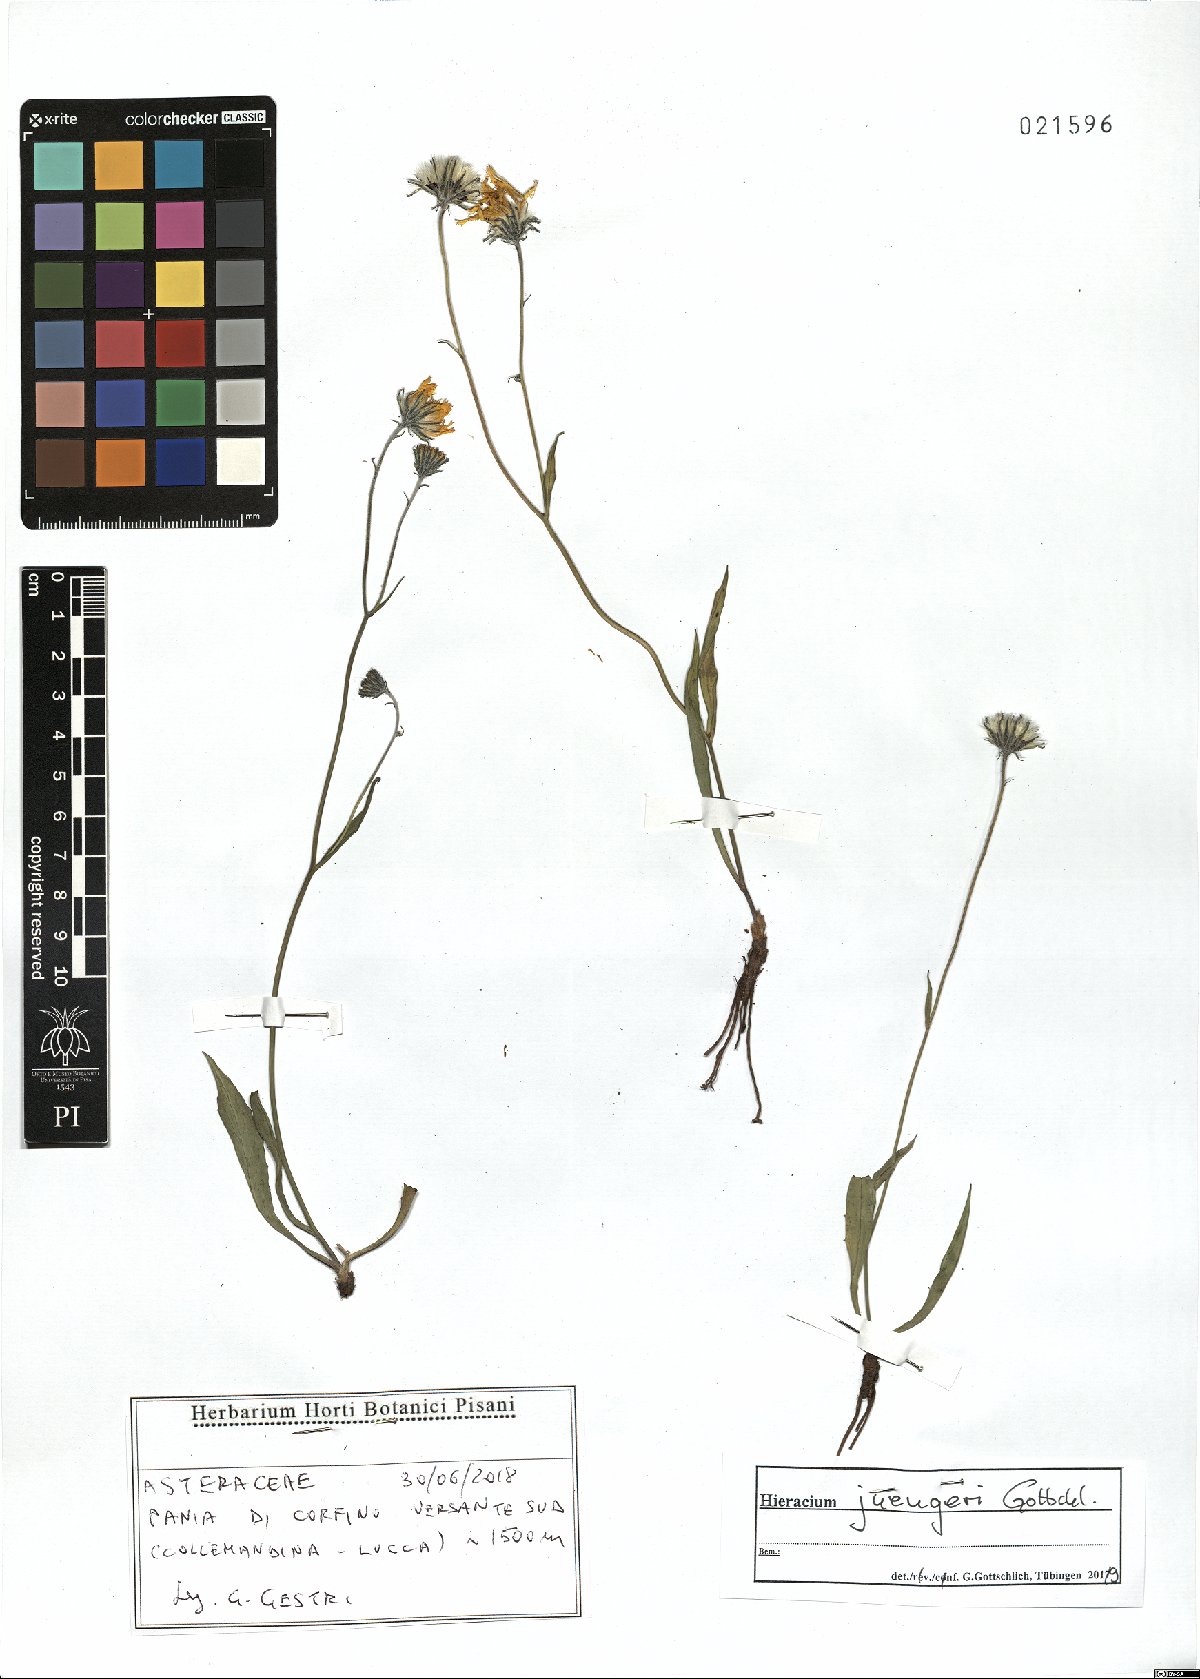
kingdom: Plantae
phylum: Tracheophyta
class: Magnoliopsida
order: Asterales
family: Asteraceae
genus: Hieracium
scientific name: Hieracium juengeri
